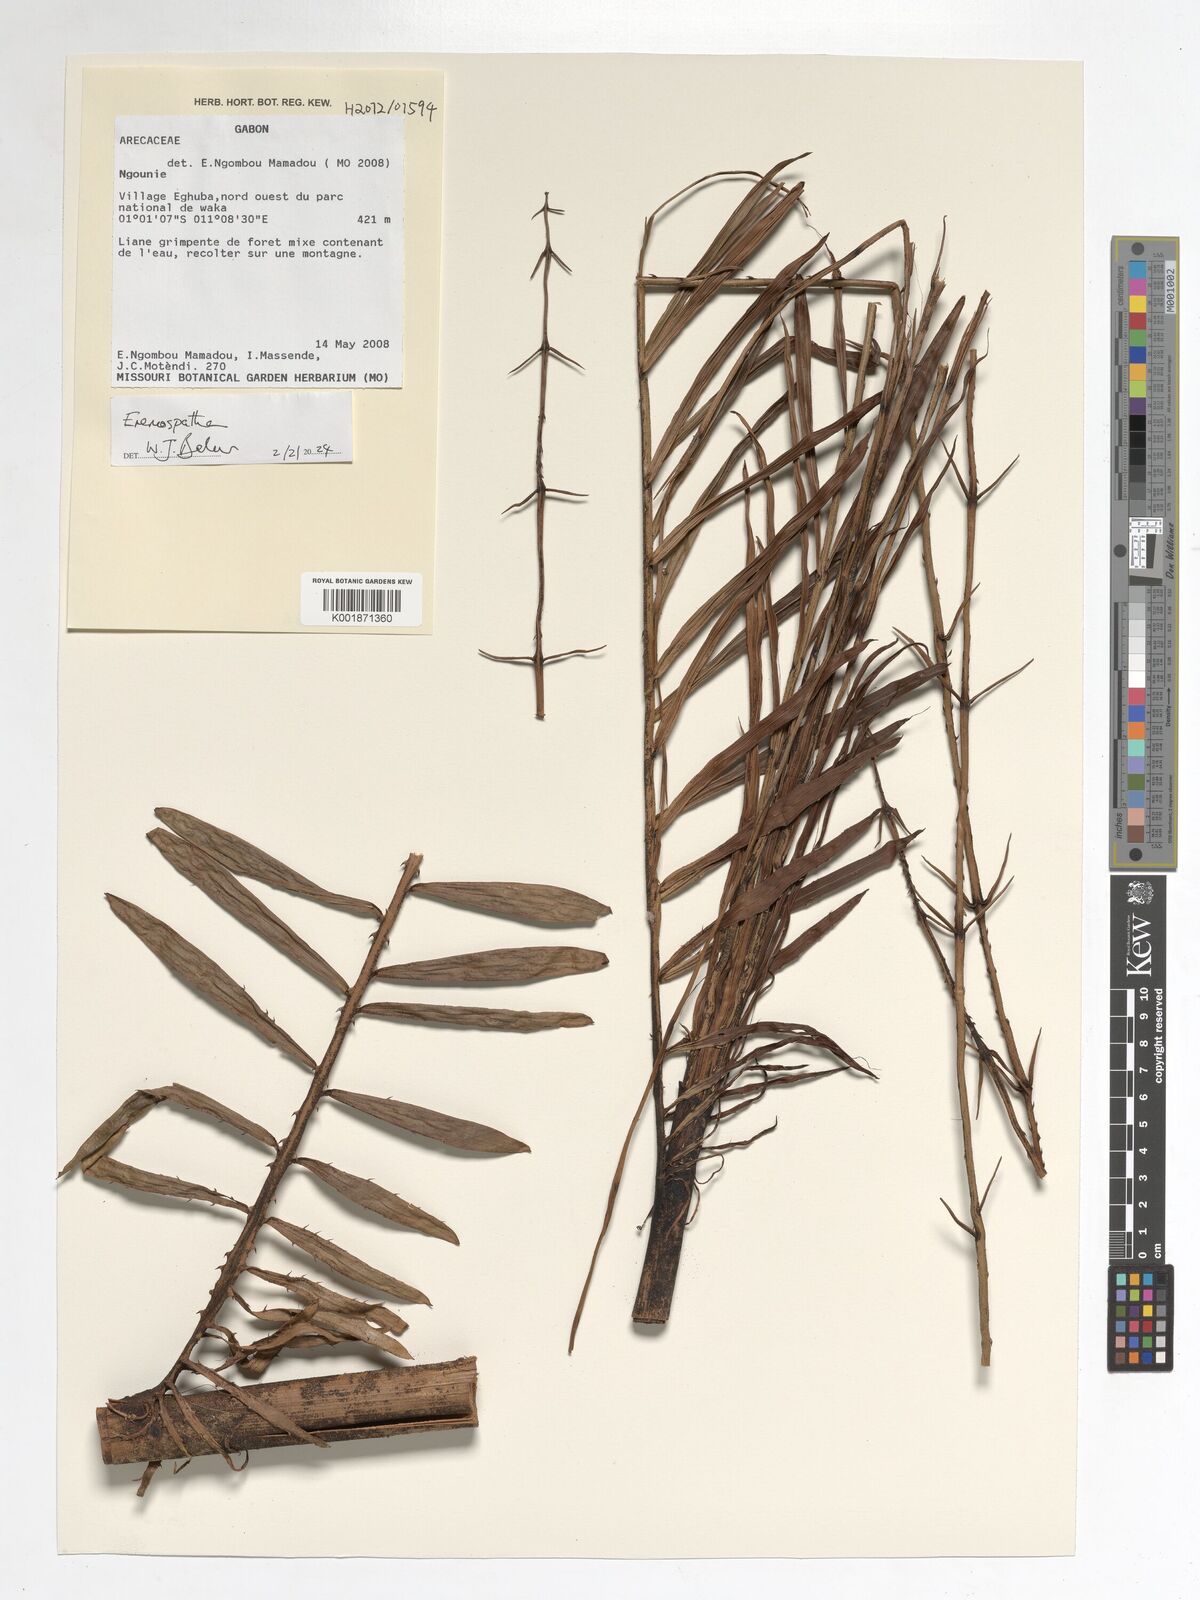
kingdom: Plantae
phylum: Tracheophyta
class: Liliopsida
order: Arecales
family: Arecaceae
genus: Eremospatha
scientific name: Eremospatha
